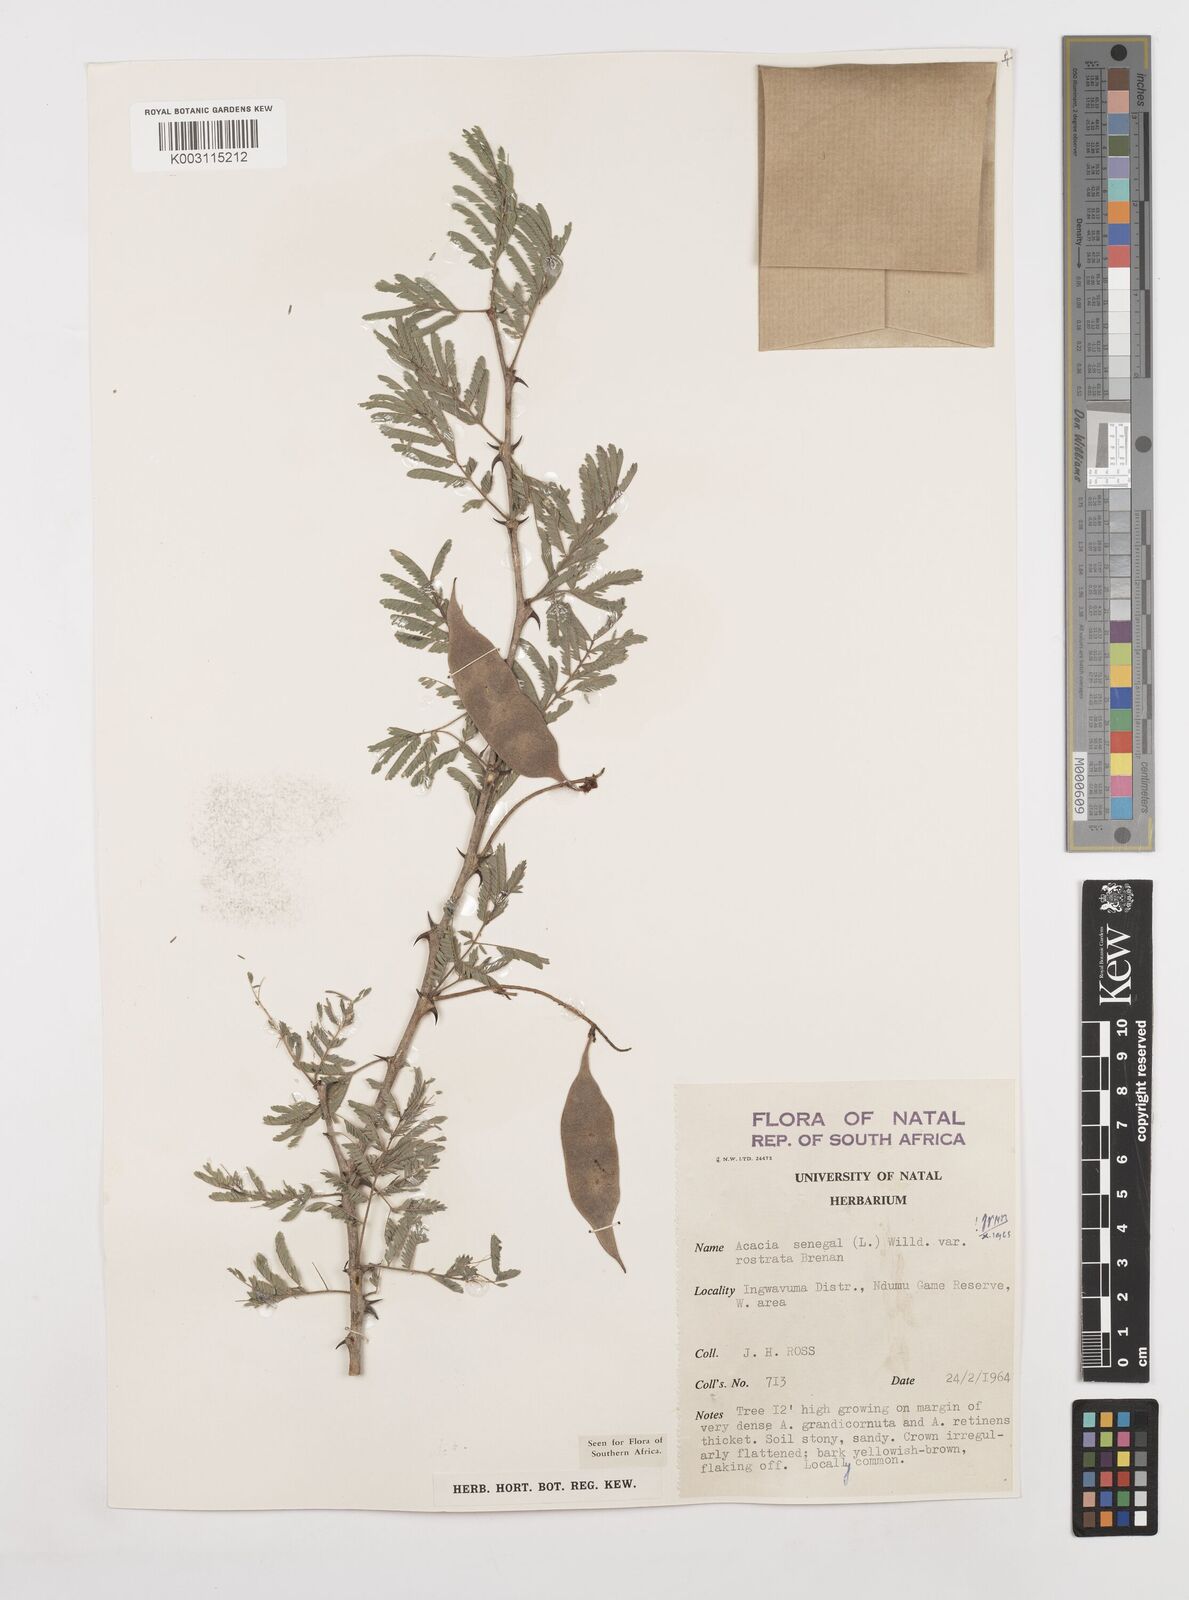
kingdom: Plantae
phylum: Tracheophyta
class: Magnoliopsida
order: Fabales
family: Fabaceae
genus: Senegalia
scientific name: Senegalia senegal
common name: Senegal-gum
